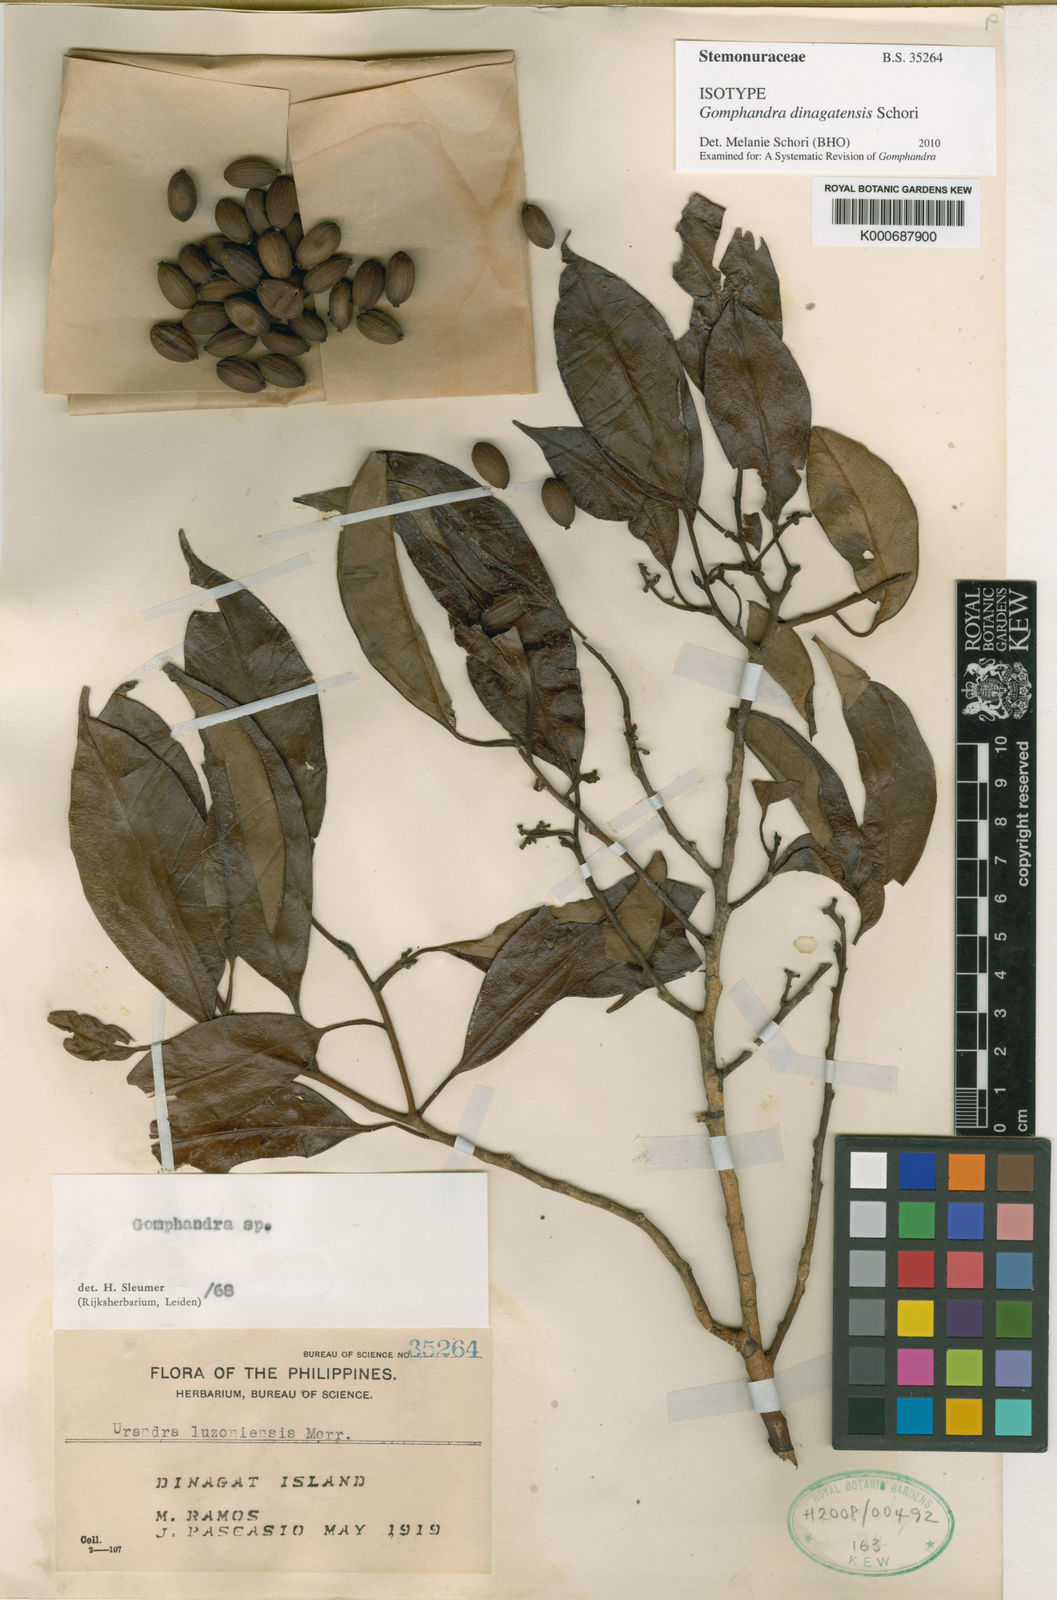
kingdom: Plantae
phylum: Tracheophyta
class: Magnoliopsida
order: Cardiopteridales
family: Stemonuraceae
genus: Gomphandra
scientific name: Gomphandra dinagatensis
